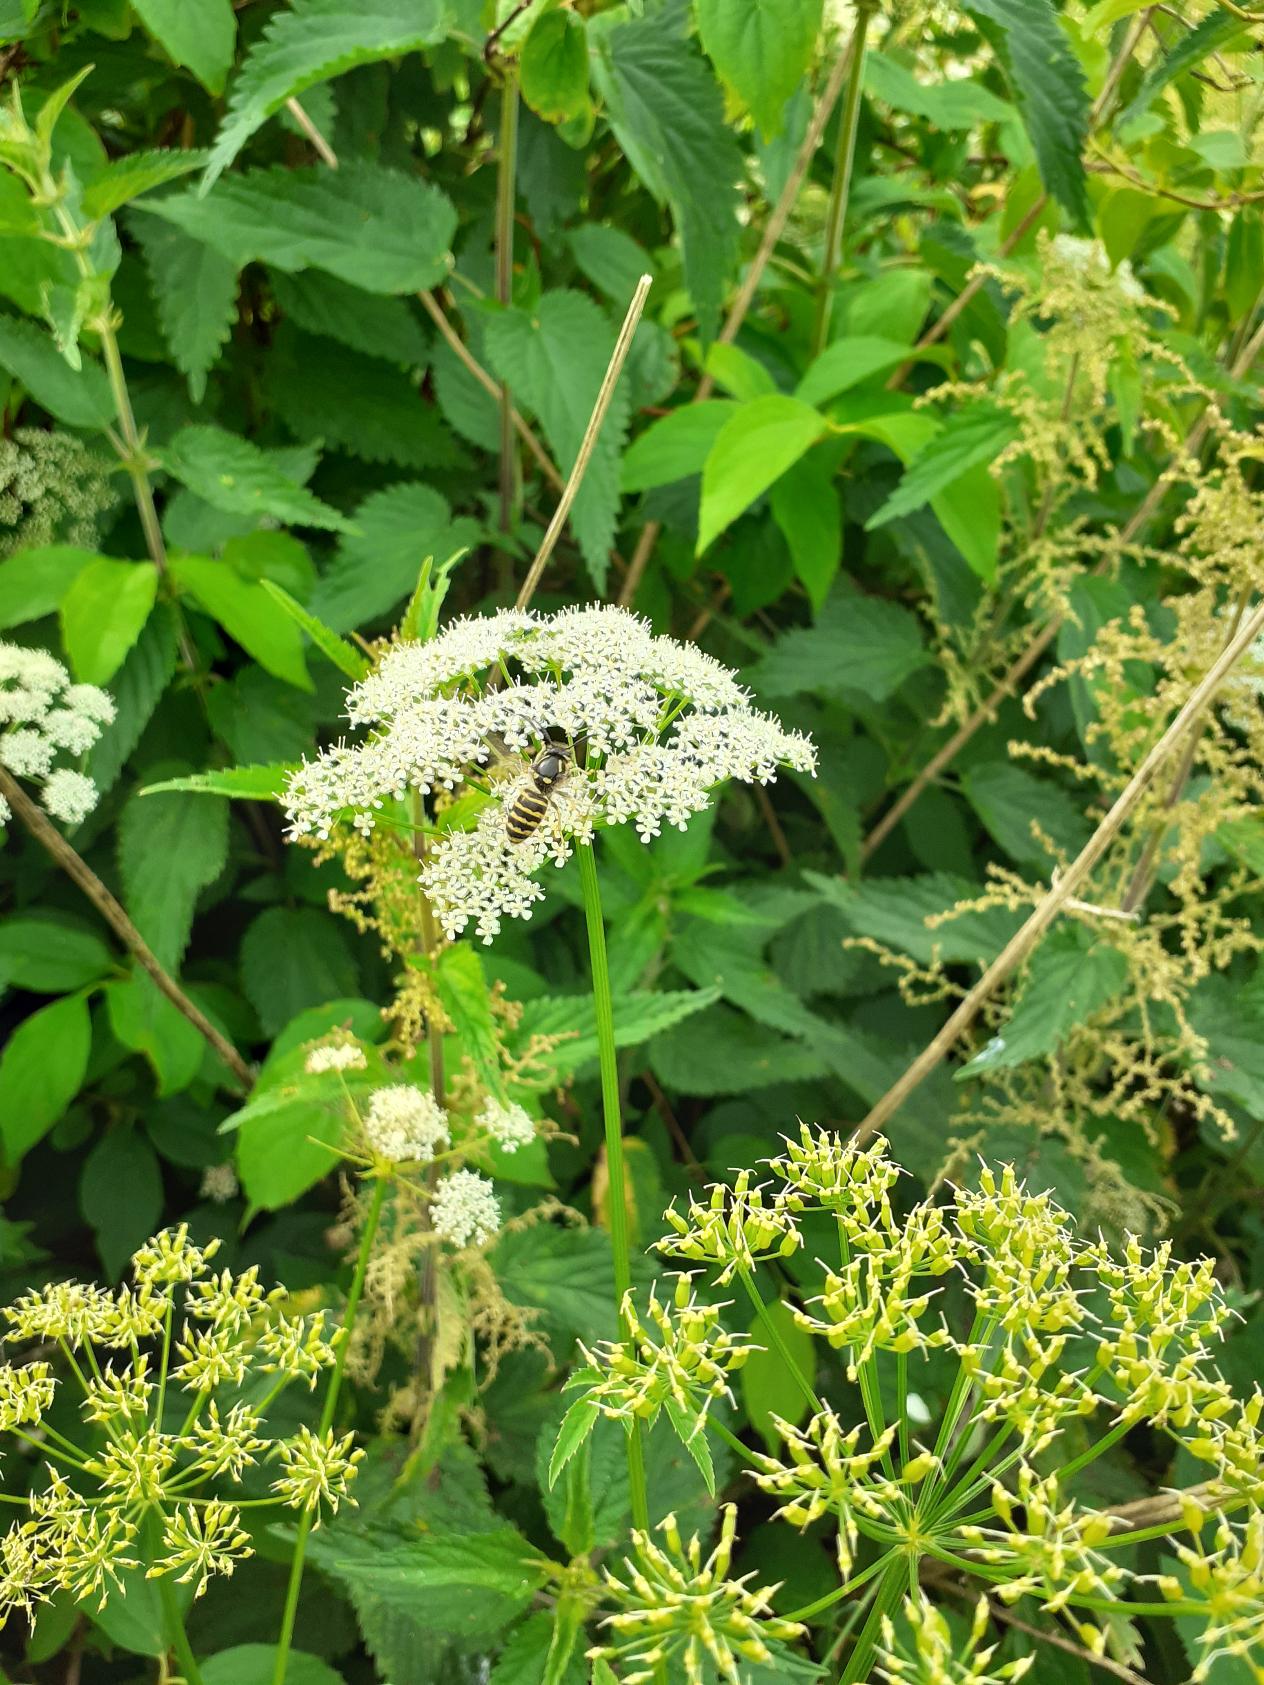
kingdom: Plantae
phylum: Tracheophyta
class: Magnoliopsida
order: Apiales
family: Apiaceae
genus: Aegopodium
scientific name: Aegopodium podagraria
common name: Skvalderkål
